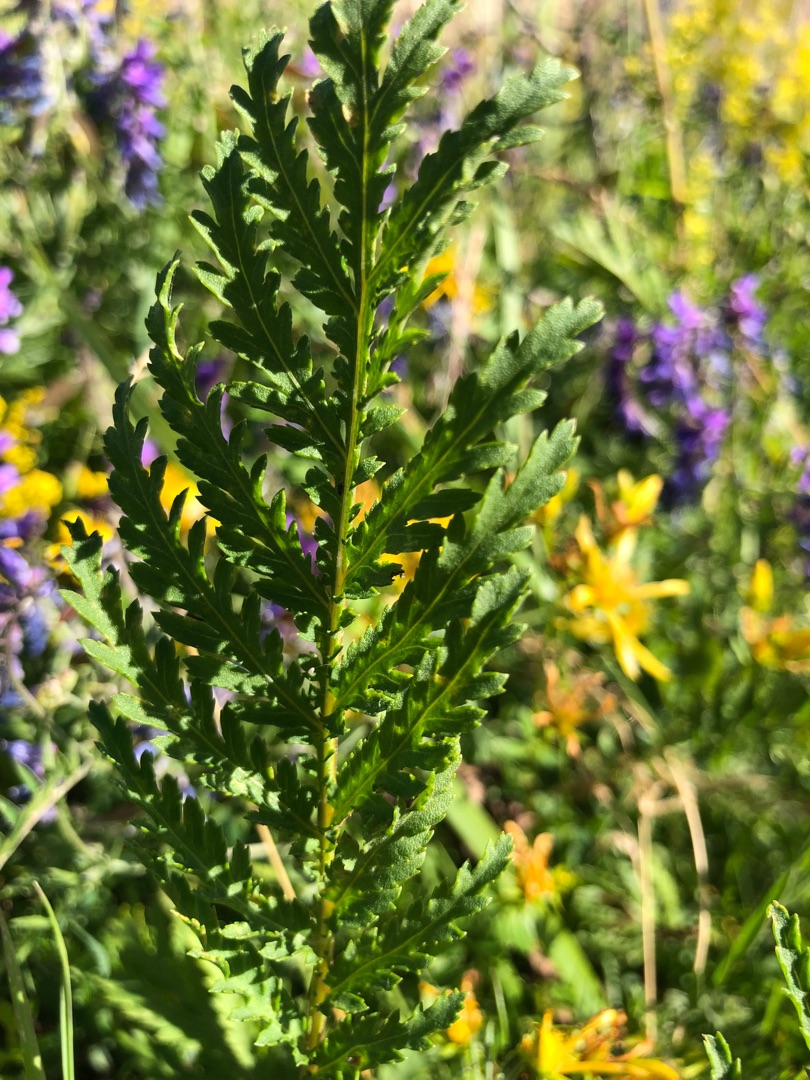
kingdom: Plantae
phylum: Tracheophyta
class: Magnoliopsida
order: Asterales
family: Asteraceae
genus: Tanacetum
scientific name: Tanacetum vulgare
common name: Rejnfan
